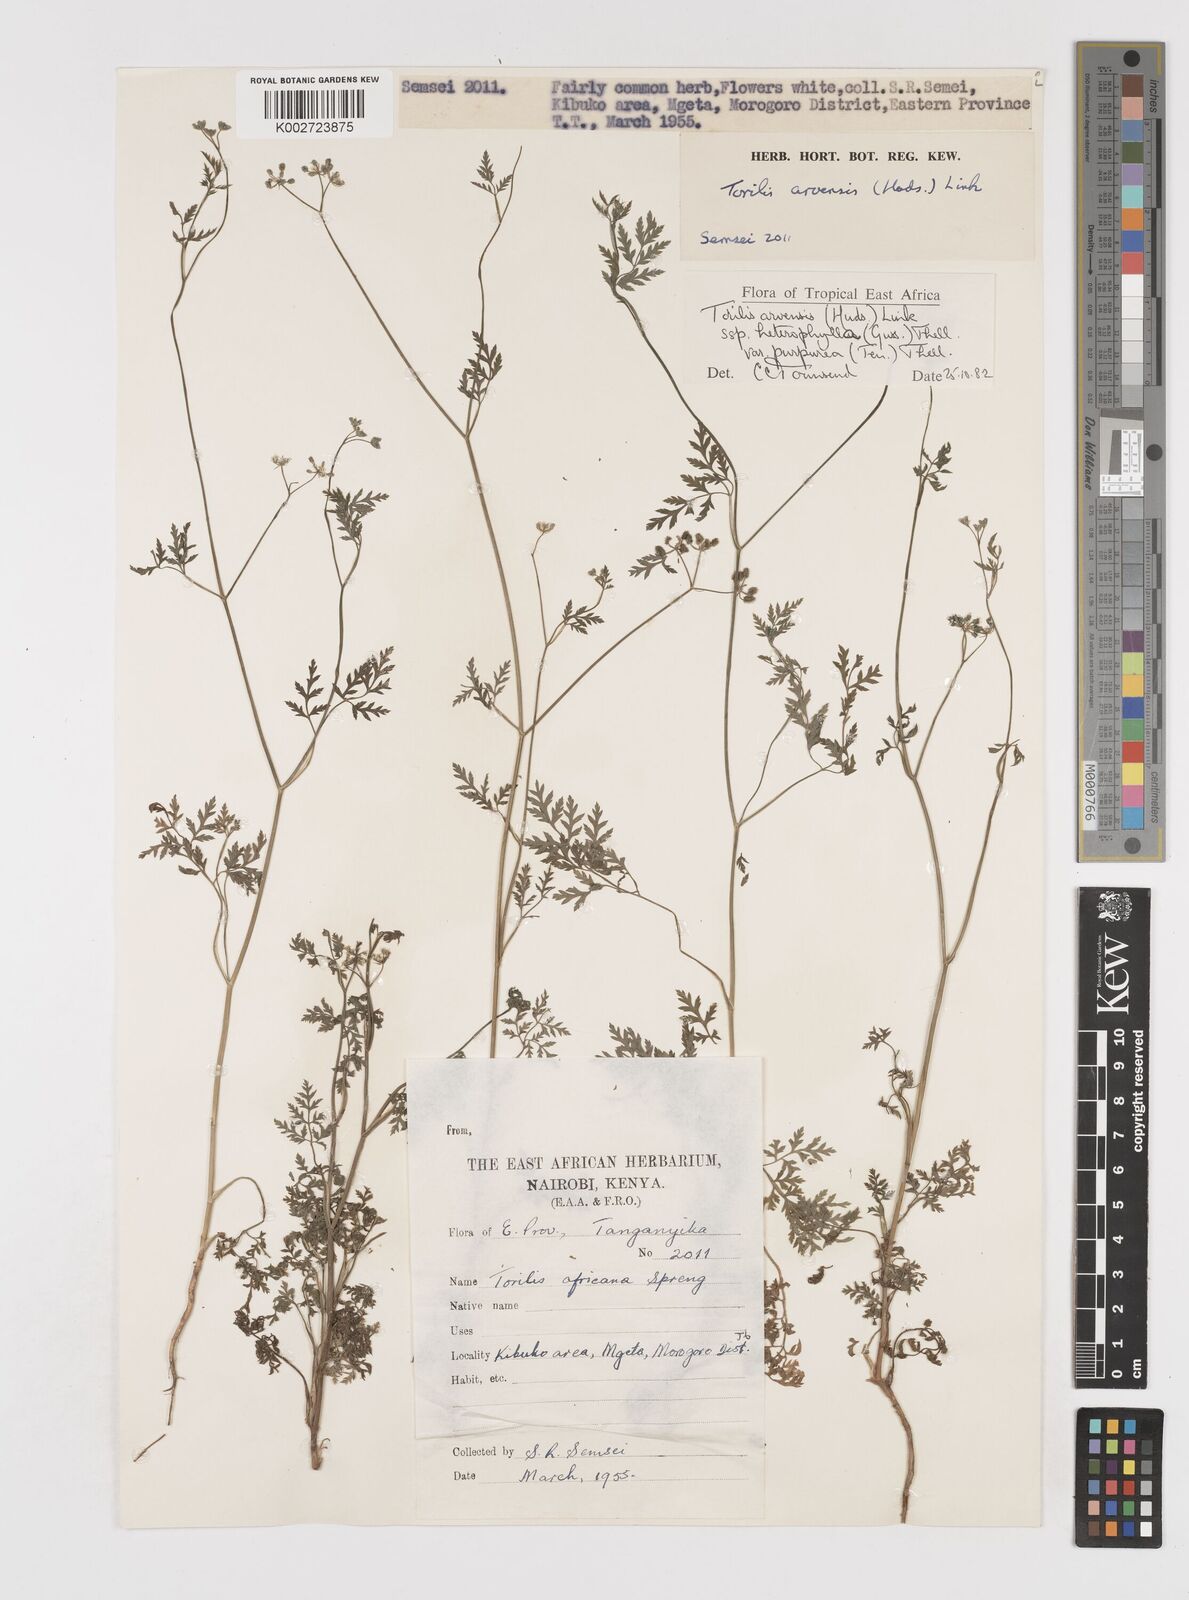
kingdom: Plantae
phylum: Tracheophyta
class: Magnoliopsida
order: Apiales
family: Apiaceae
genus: Torilis
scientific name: Torilis arvensis
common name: Spreading hedge-parsley
